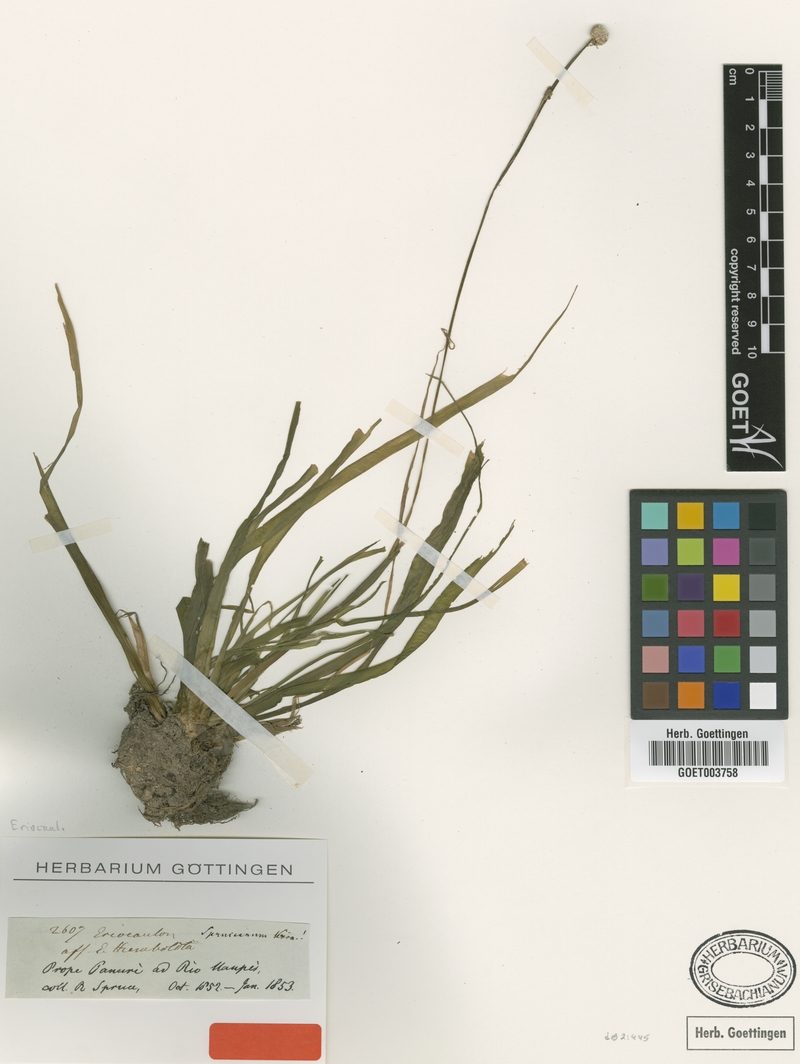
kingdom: Plantae
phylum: Tracheophyta
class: Liliopsida
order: Poales
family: Eriocaulaceae
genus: Eriocaulon
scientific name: Eriocaulon spruceanum
